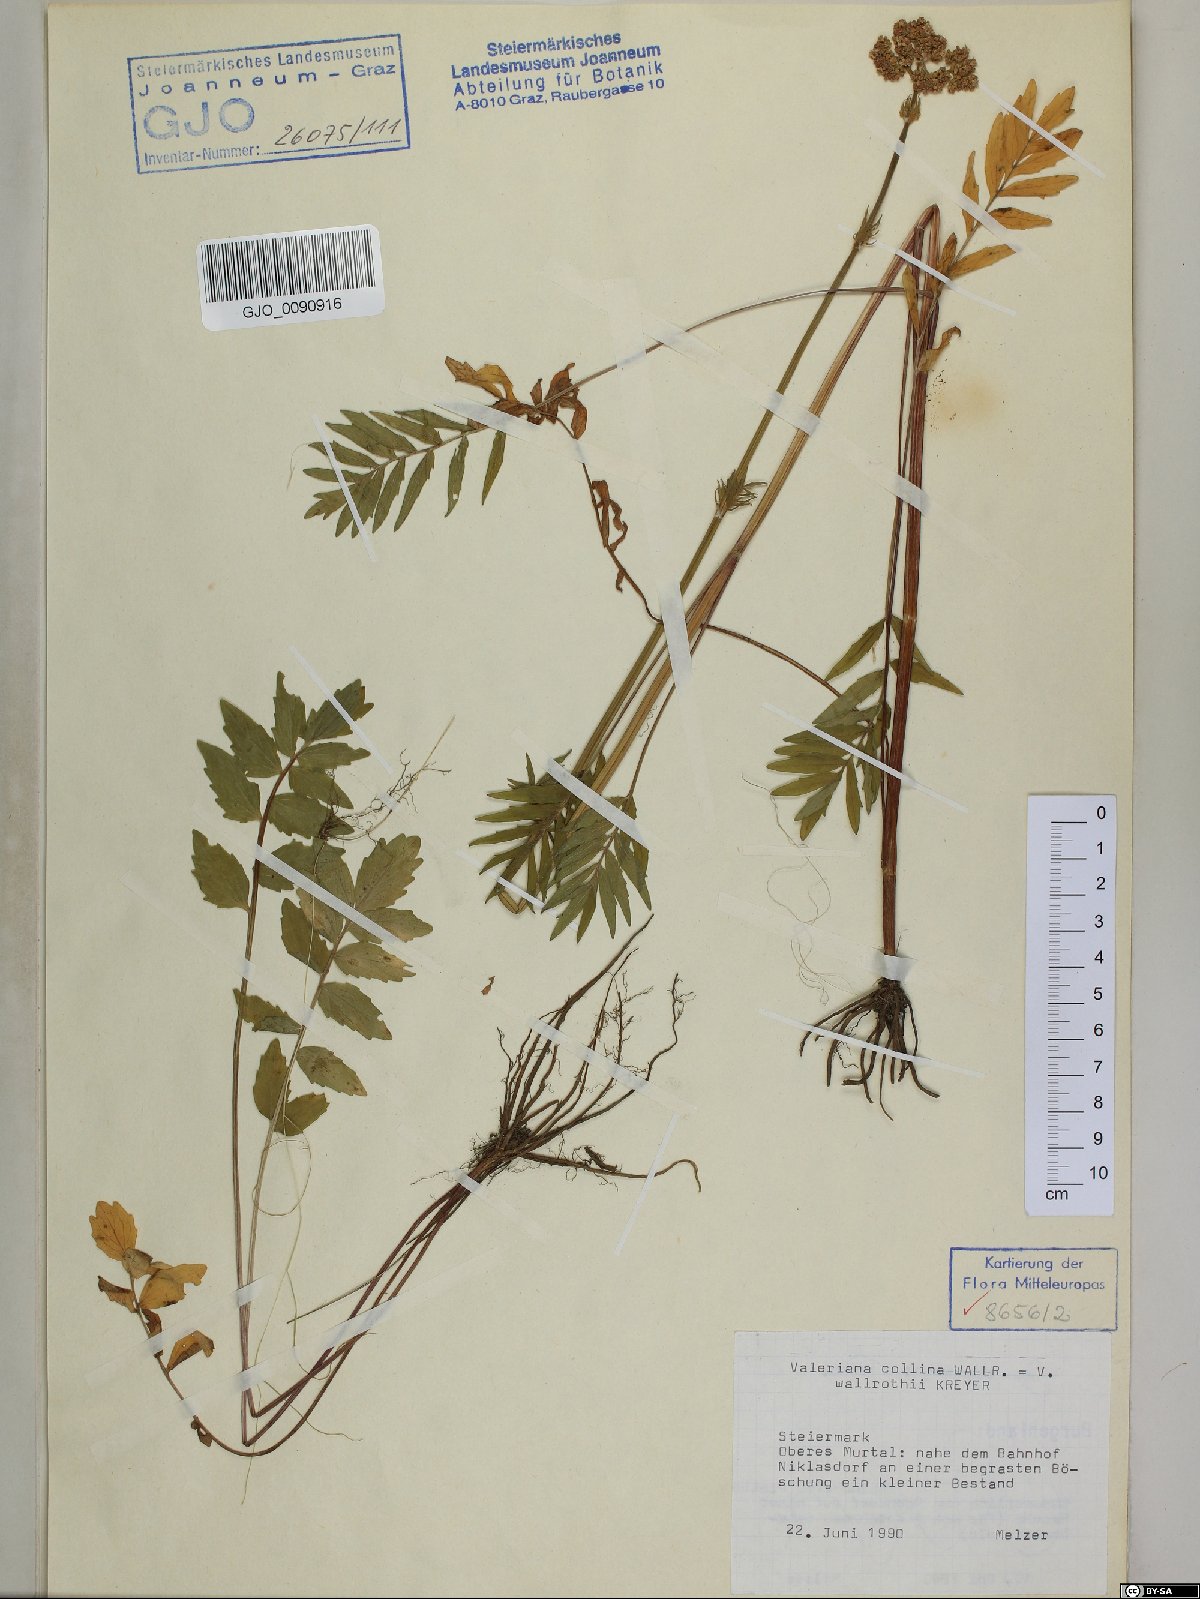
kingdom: Plantae
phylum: Tracheophyta
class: Magnoliopsida
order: Dipsacales
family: Caprifoliaceae
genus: Valeriana
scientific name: Valeriana pratensis
